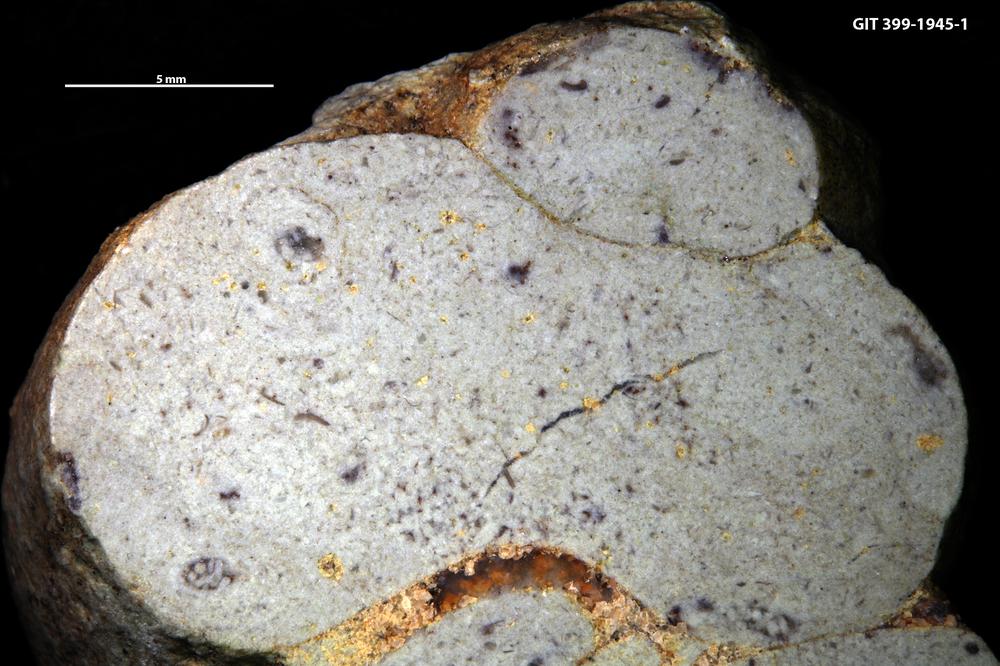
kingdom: Animalia
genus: Tubularina
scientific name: Tubularina
